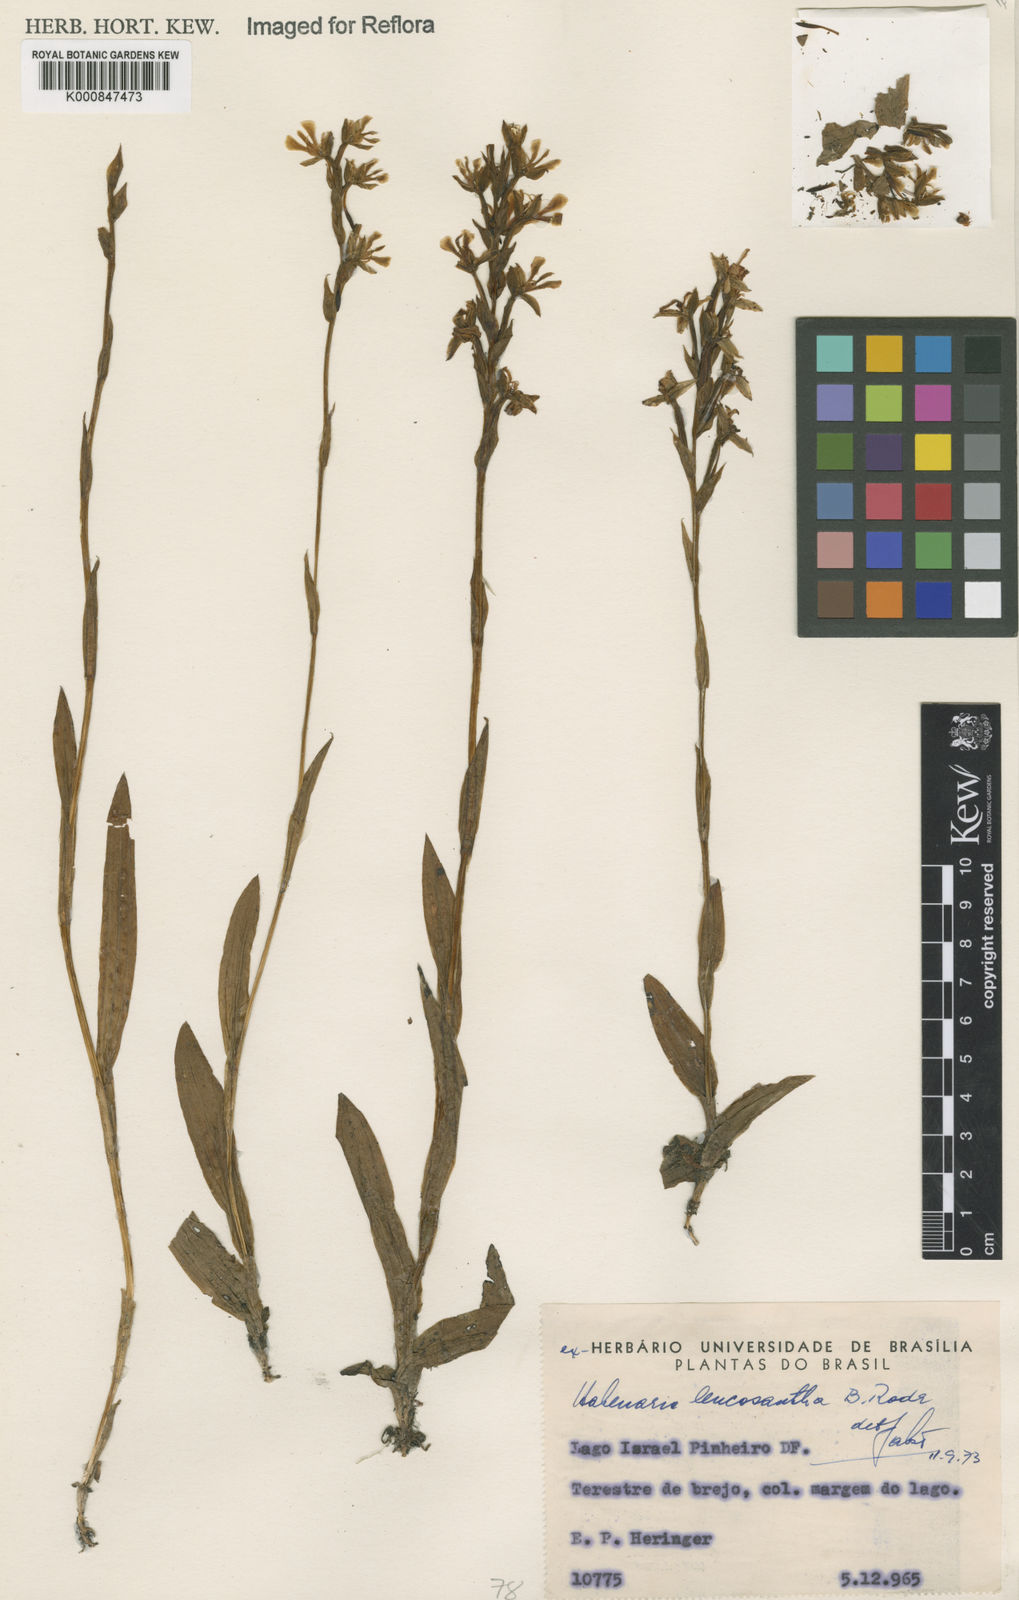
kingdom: Plantae
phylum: Tracheophyta
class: Liliopsida
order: Asparagales
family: Orchidaceae
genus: Habenaria
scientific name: Habenaria
